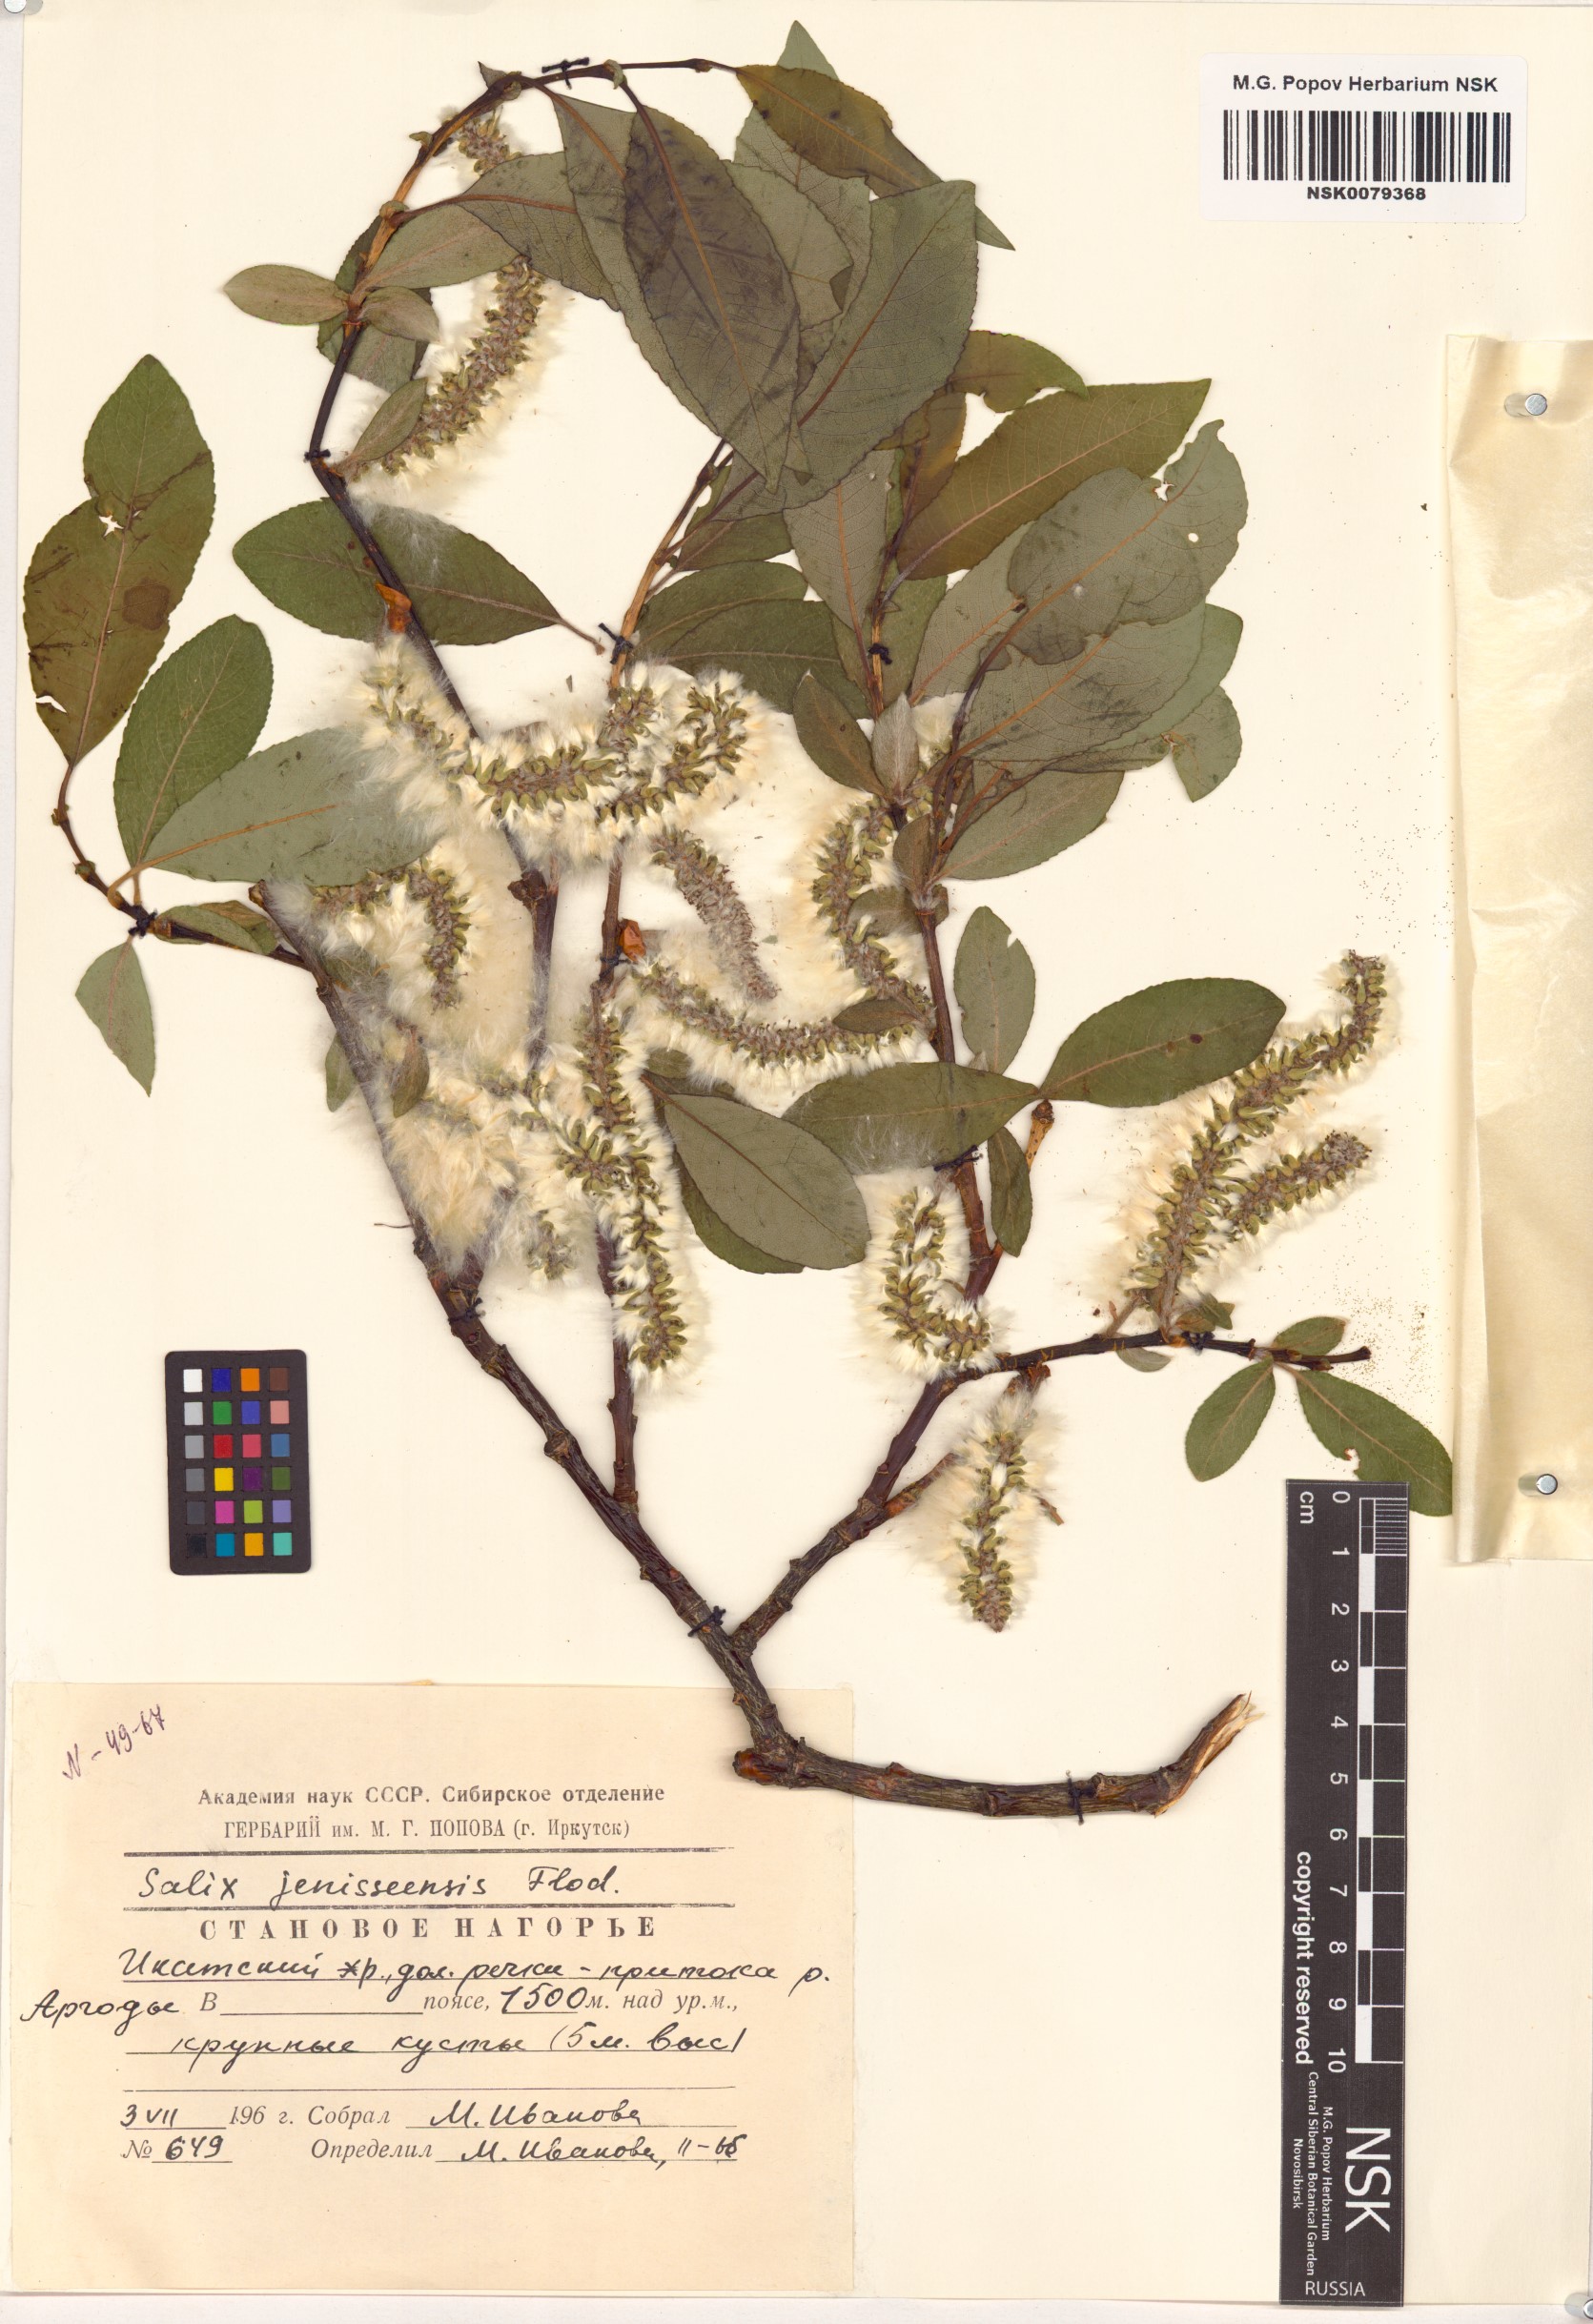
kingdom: Plantae
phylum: Tracheophyta
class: Magnoliopsida
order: Malpighiales
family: Salicaceae
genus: Salix
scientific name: Salix jenisseensis
